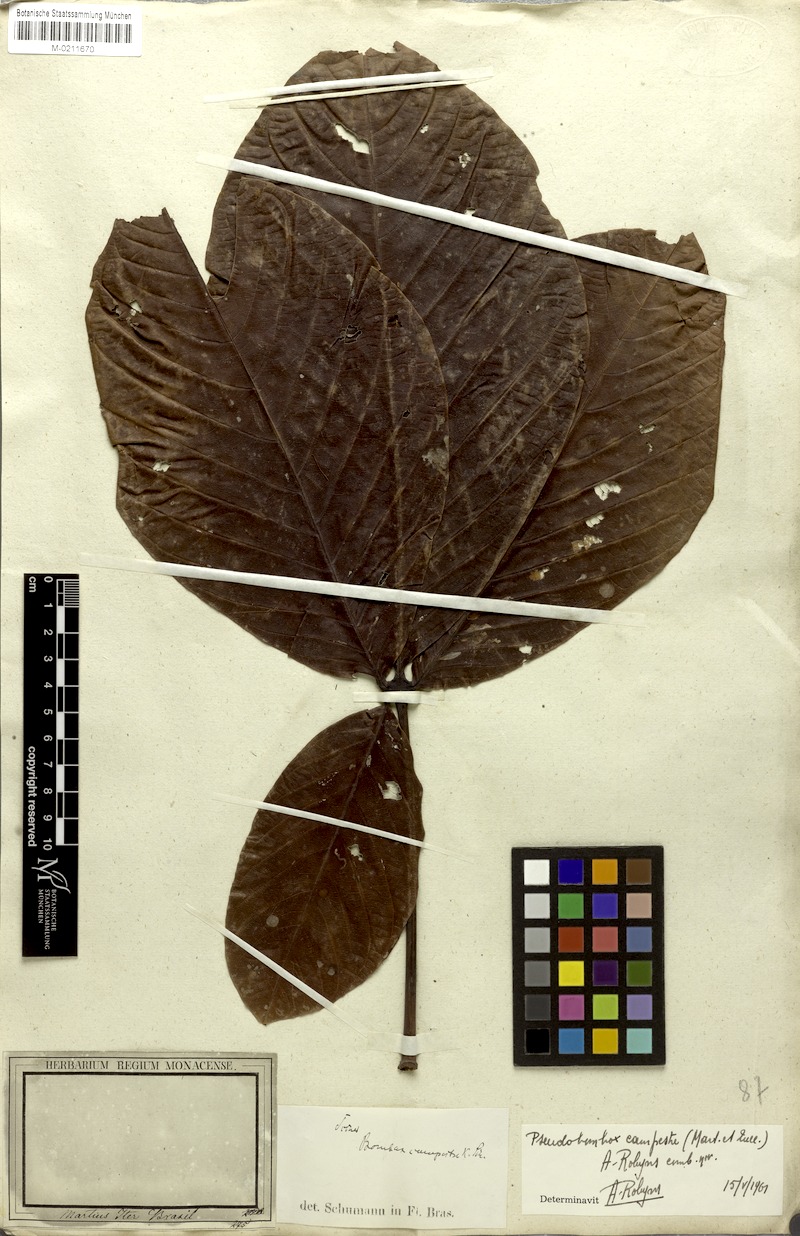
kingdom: Plantae
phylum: Tracheophyta
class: Magnoliopsida
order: Malvales
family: Malvaceae
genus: Pseudobombax
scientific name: Pseudobombax campestre
